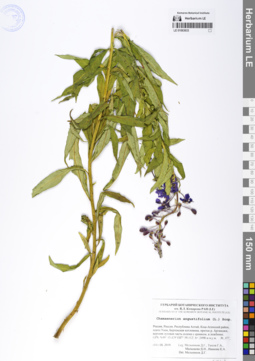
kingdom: Plantae
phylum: Tracheophyta
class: Magnoliopsida
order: Myrtales
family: Onagraceae
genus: Chamaenerion
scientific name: Chamaenerion angustifolium
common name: Fireweed
